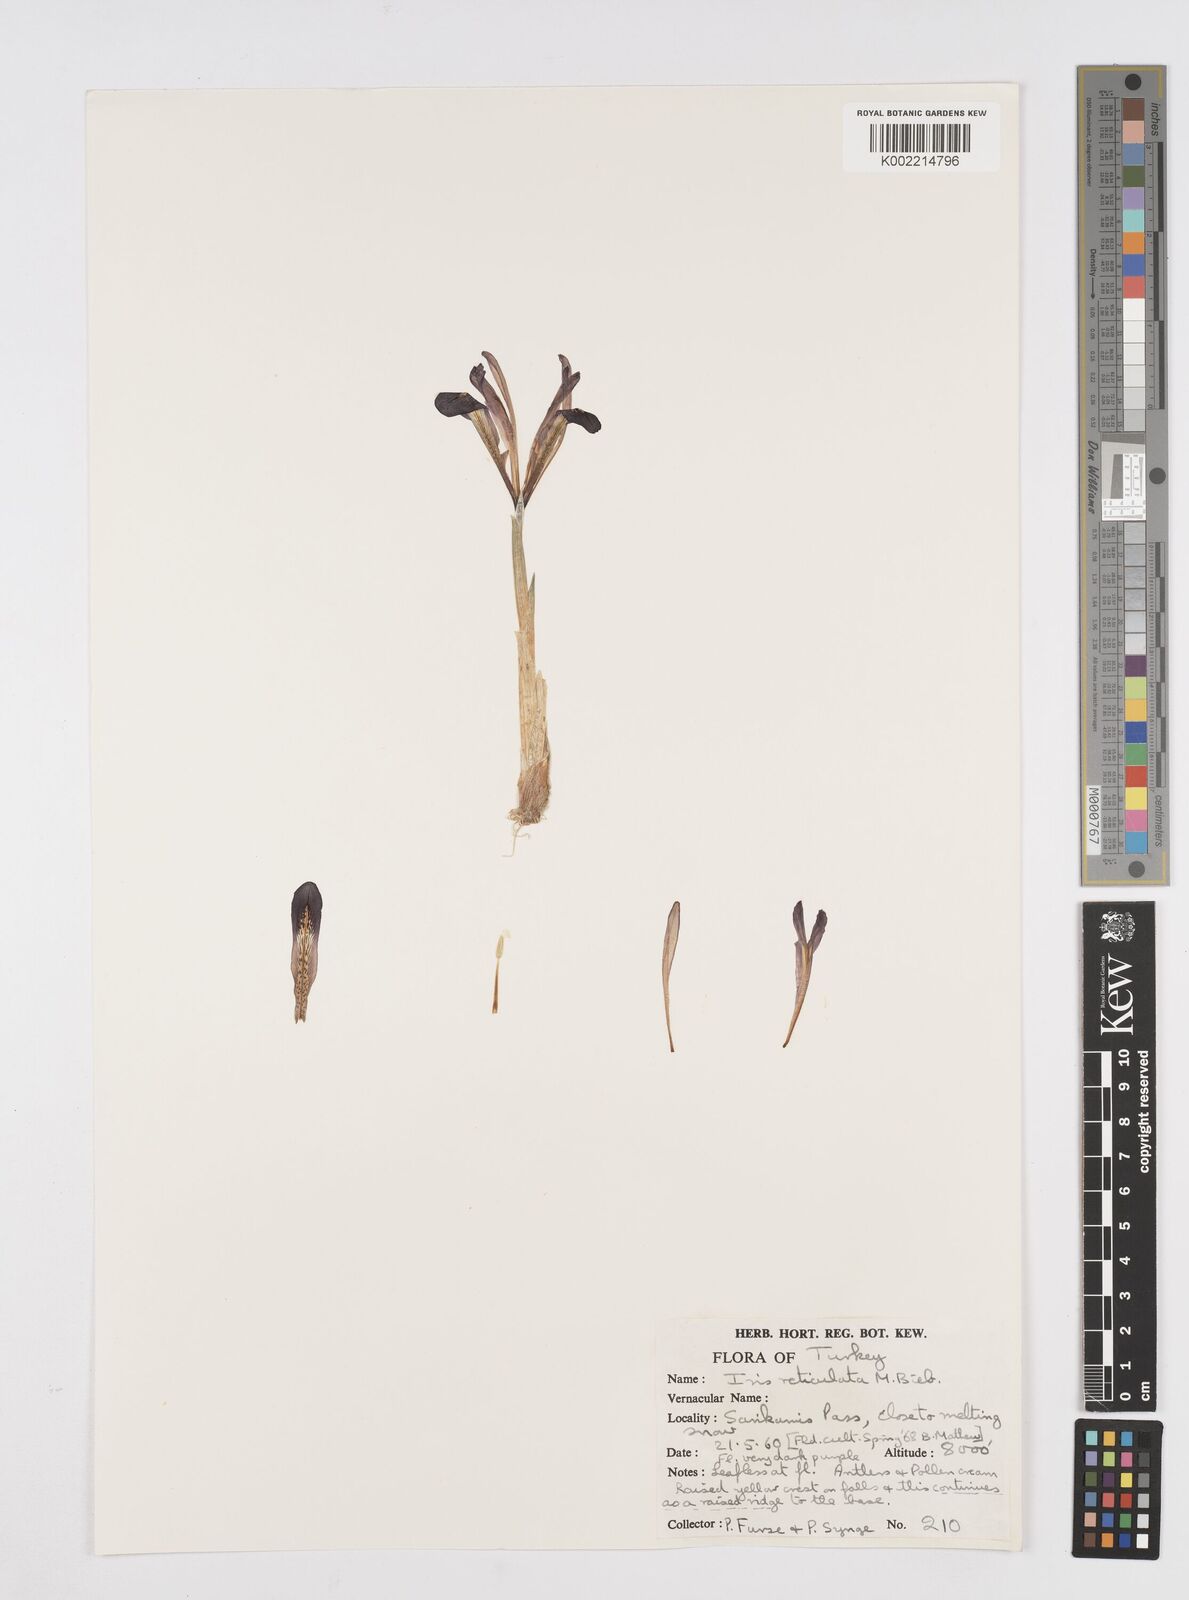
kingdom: Plantae
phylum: Tracheophyta
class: Liliopsida
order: Asparagales
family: Iridaceae
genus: Iris
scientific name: Iris reticulata
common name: Netted iris
